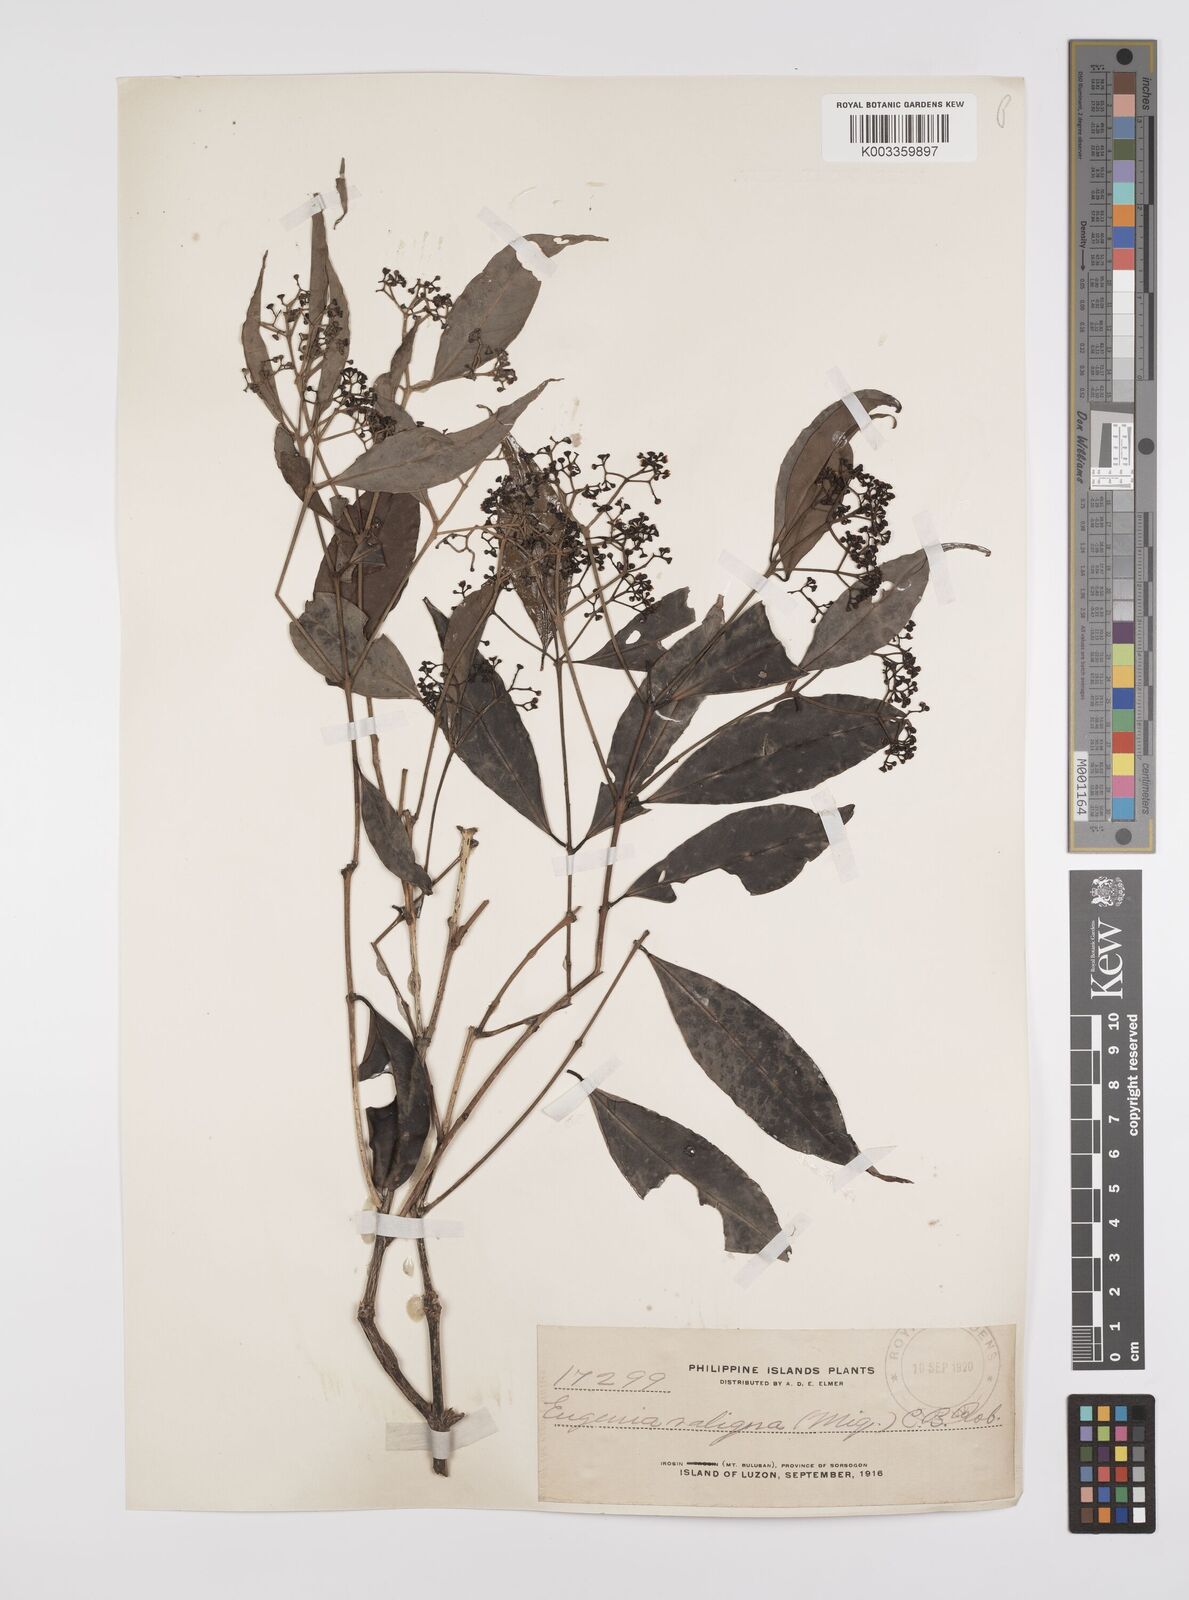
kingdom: Plantae
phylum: Tracheophyta
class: Magnoliopsida
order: Myrtales
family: Myrtaceae
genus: Syzygium
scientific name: Syzygium acuminatissimum
